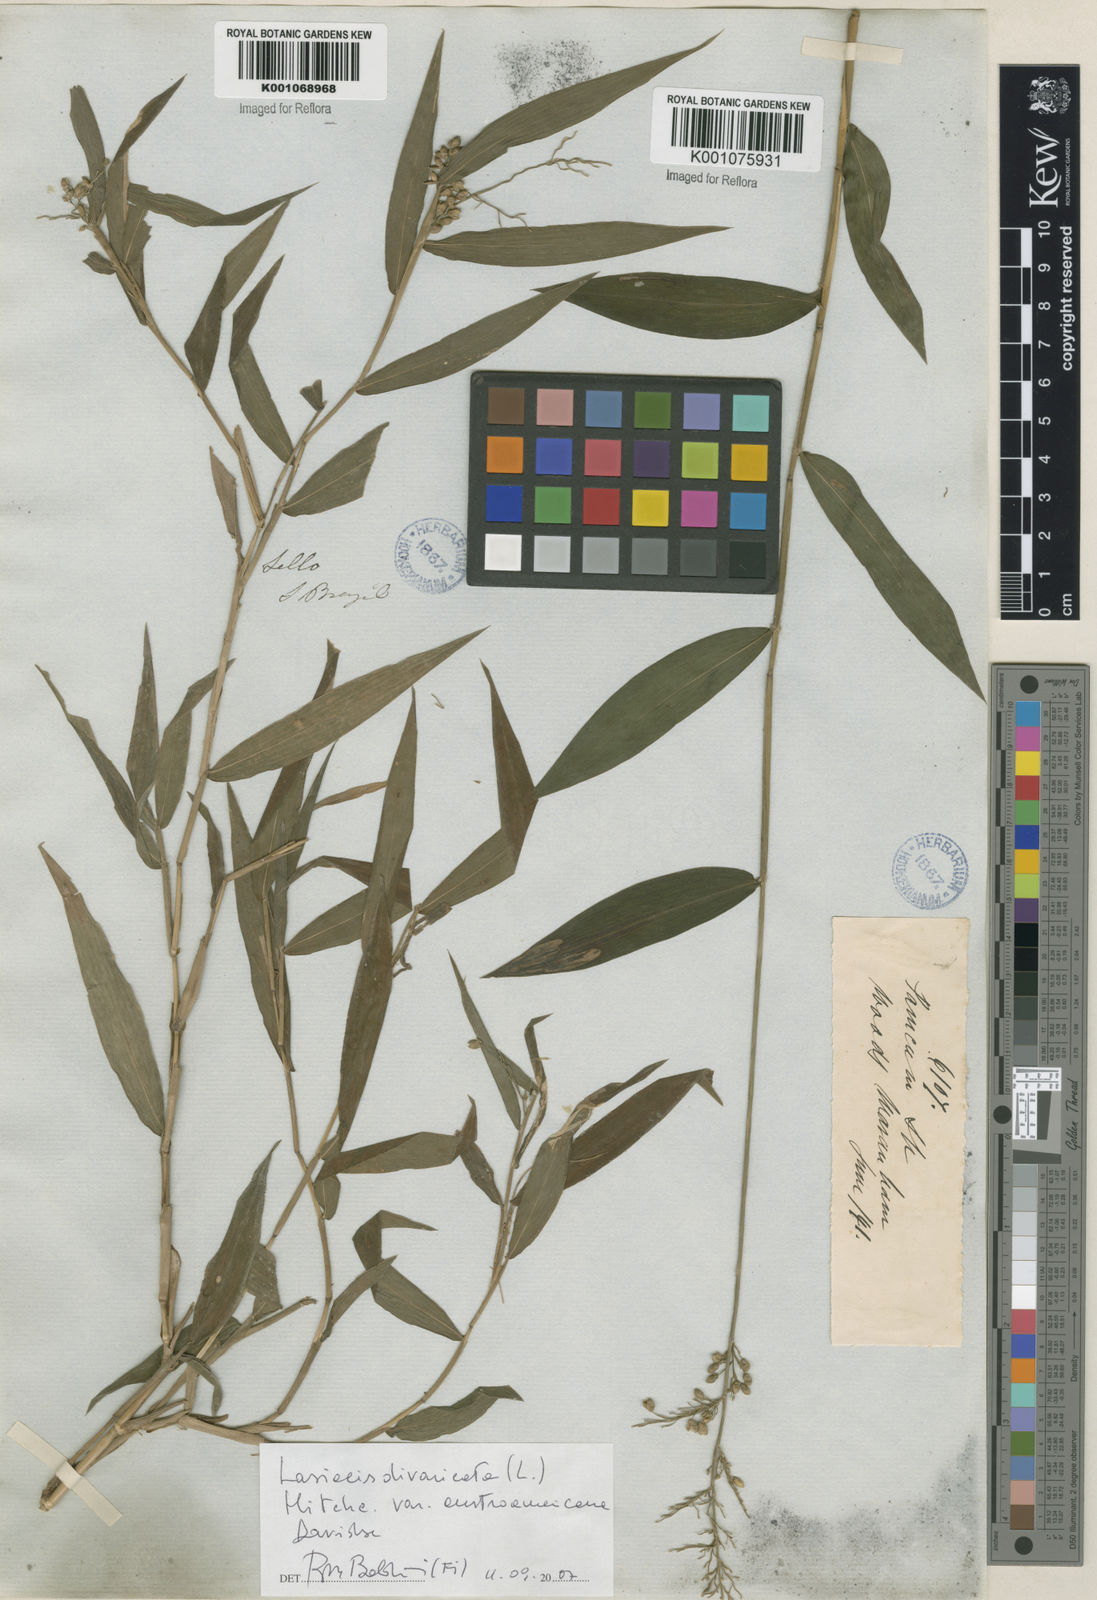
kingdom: Plantae
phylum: Tracheophyta
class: Liliopsida
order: Poales
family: Poaceae
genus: Lasiacis
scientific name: Lasiacis divaricata
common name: Smallcane
